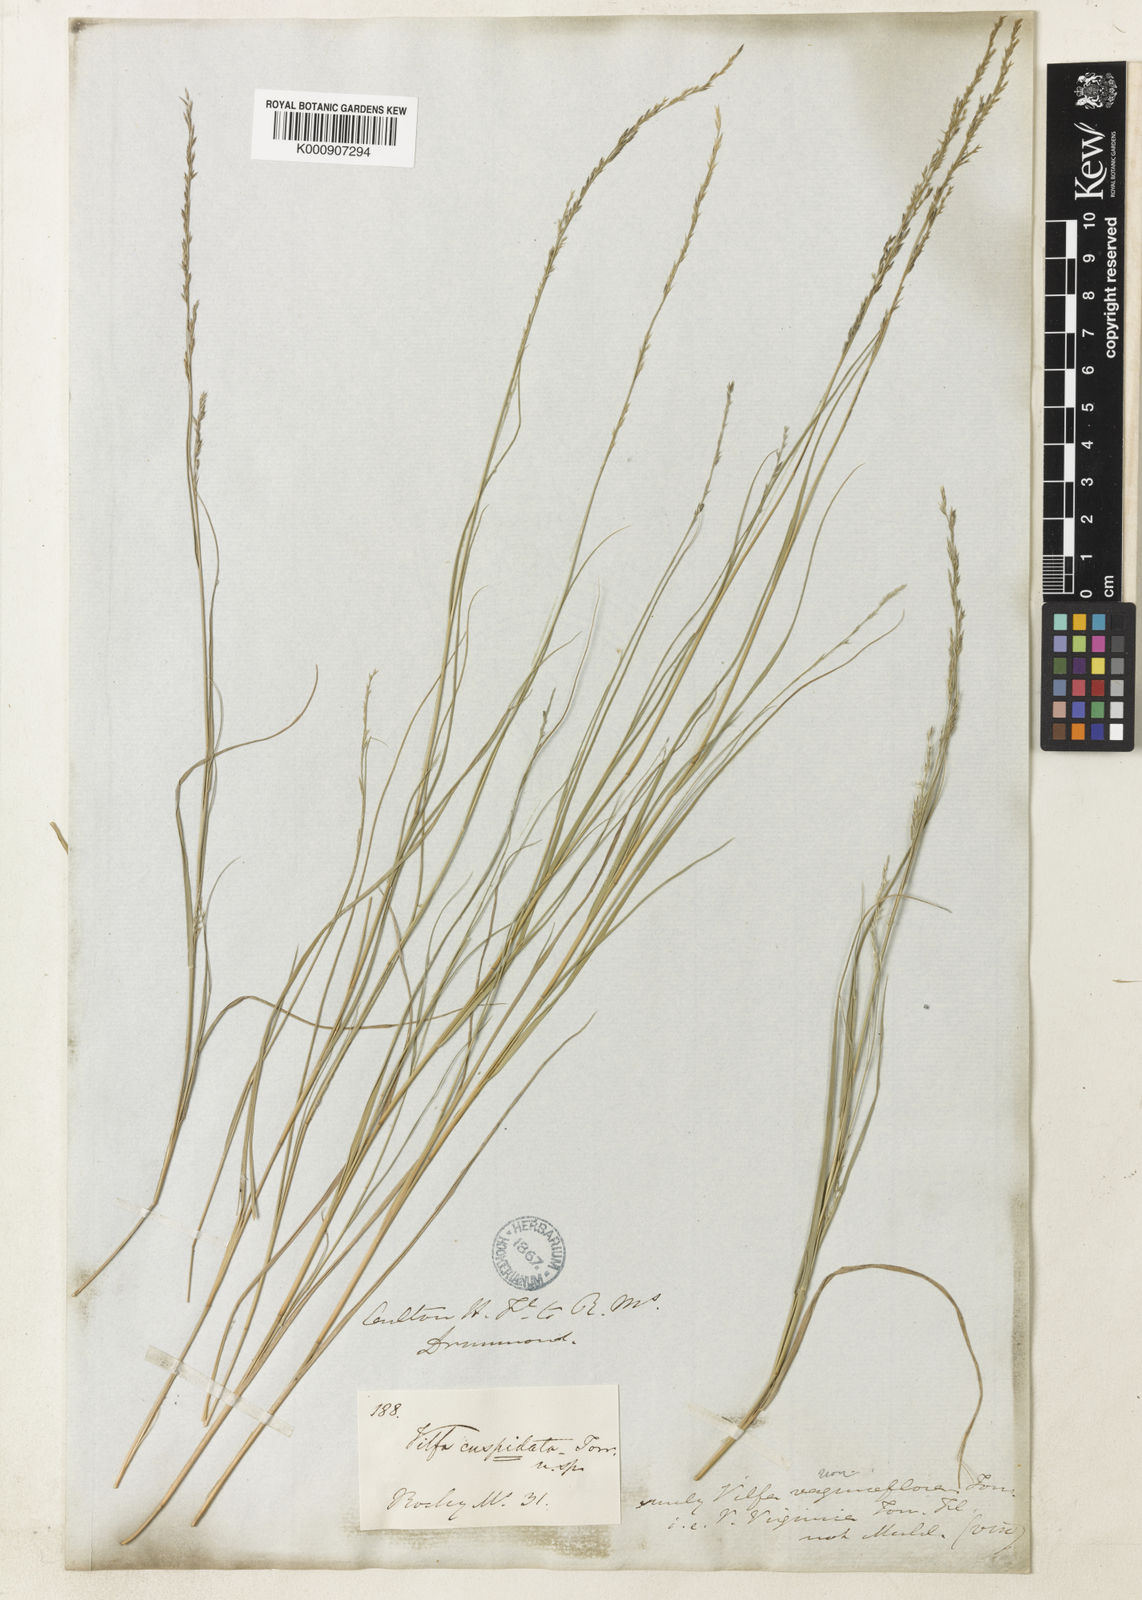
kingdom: Plantae
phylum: Tracheophyta
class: Liliopsida
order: Poales
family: Poaceae
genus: Muhlenbergia
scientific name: Muhlenbergia cuspidata
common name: Plains muhly
